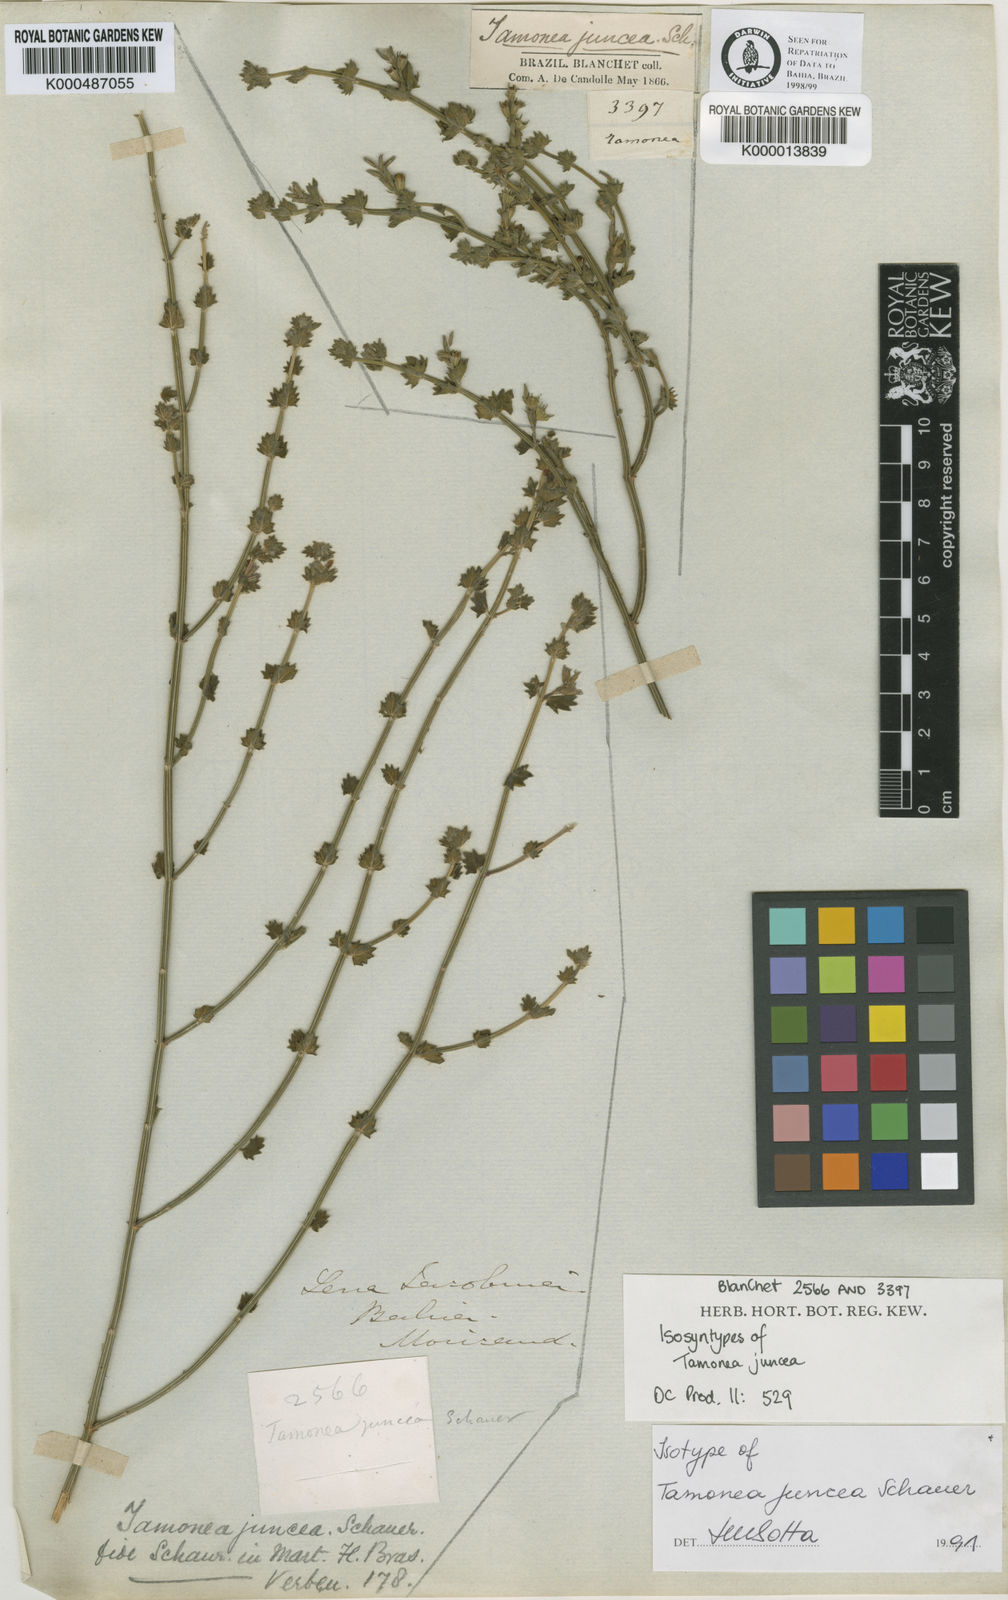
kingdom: Plantae
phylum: Tracheophyta
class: Magnoliopsida
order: Lamiales
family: Verbenaceae
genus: Tamonea
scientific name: Tamonea juncea
